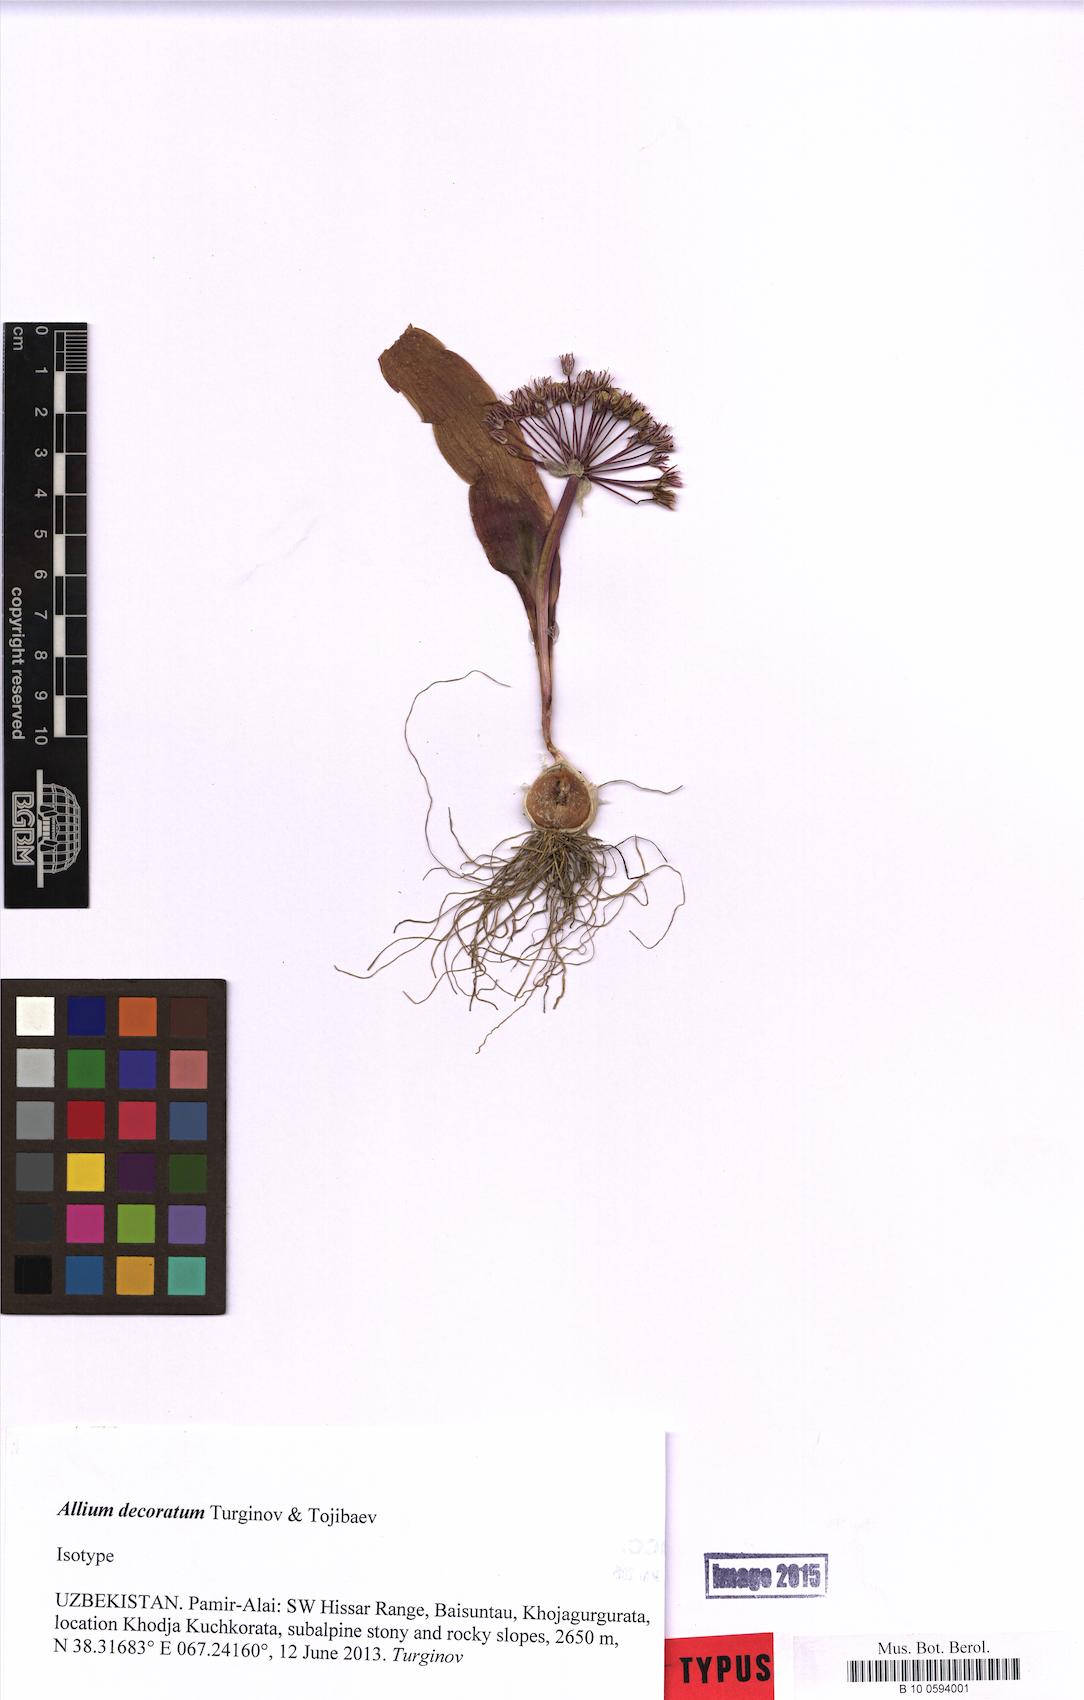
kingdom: Plantae
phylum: Tracheophyta
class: Liliopsida
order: Asparagales
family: Amaryllidaceae
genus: Allium
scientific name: Allium decoratum
